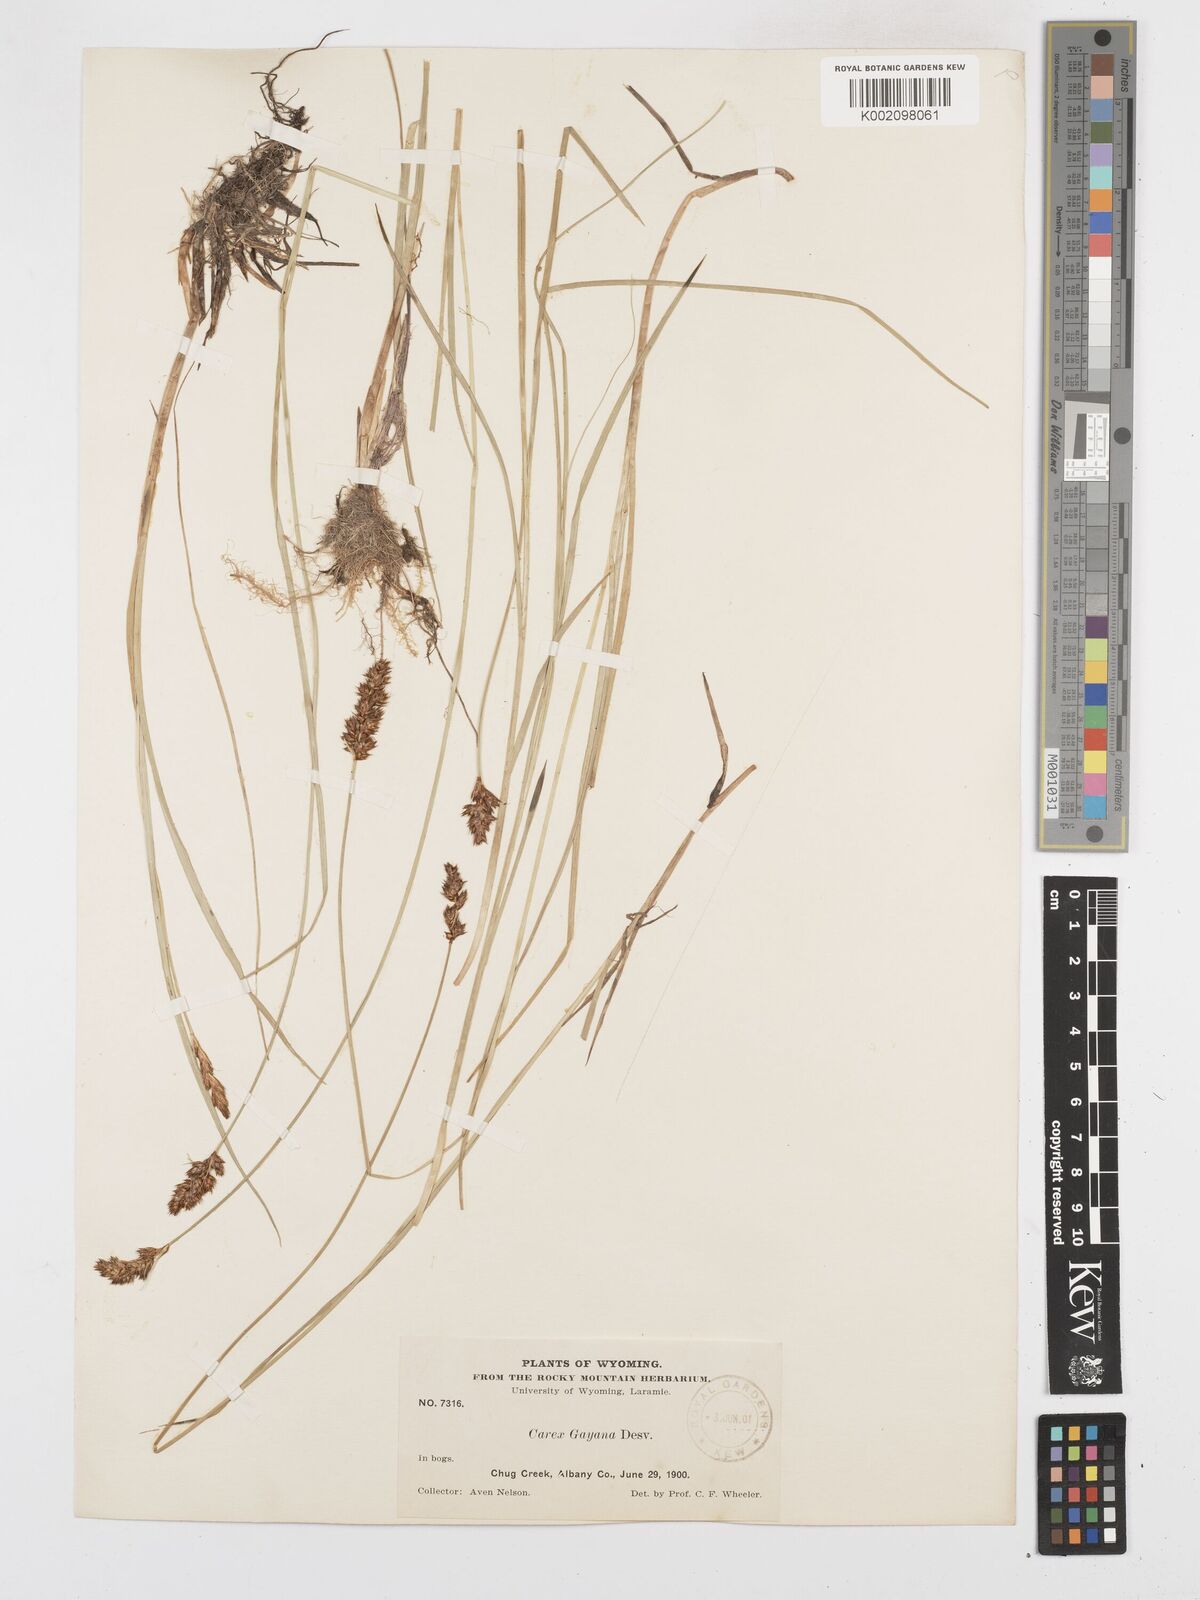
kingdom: Plantae
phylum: Tracheophyta
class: Liliopsida
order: Poales
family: Cyperaceae
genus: Carex
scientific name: Carex simulata
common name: Analogue sedge
